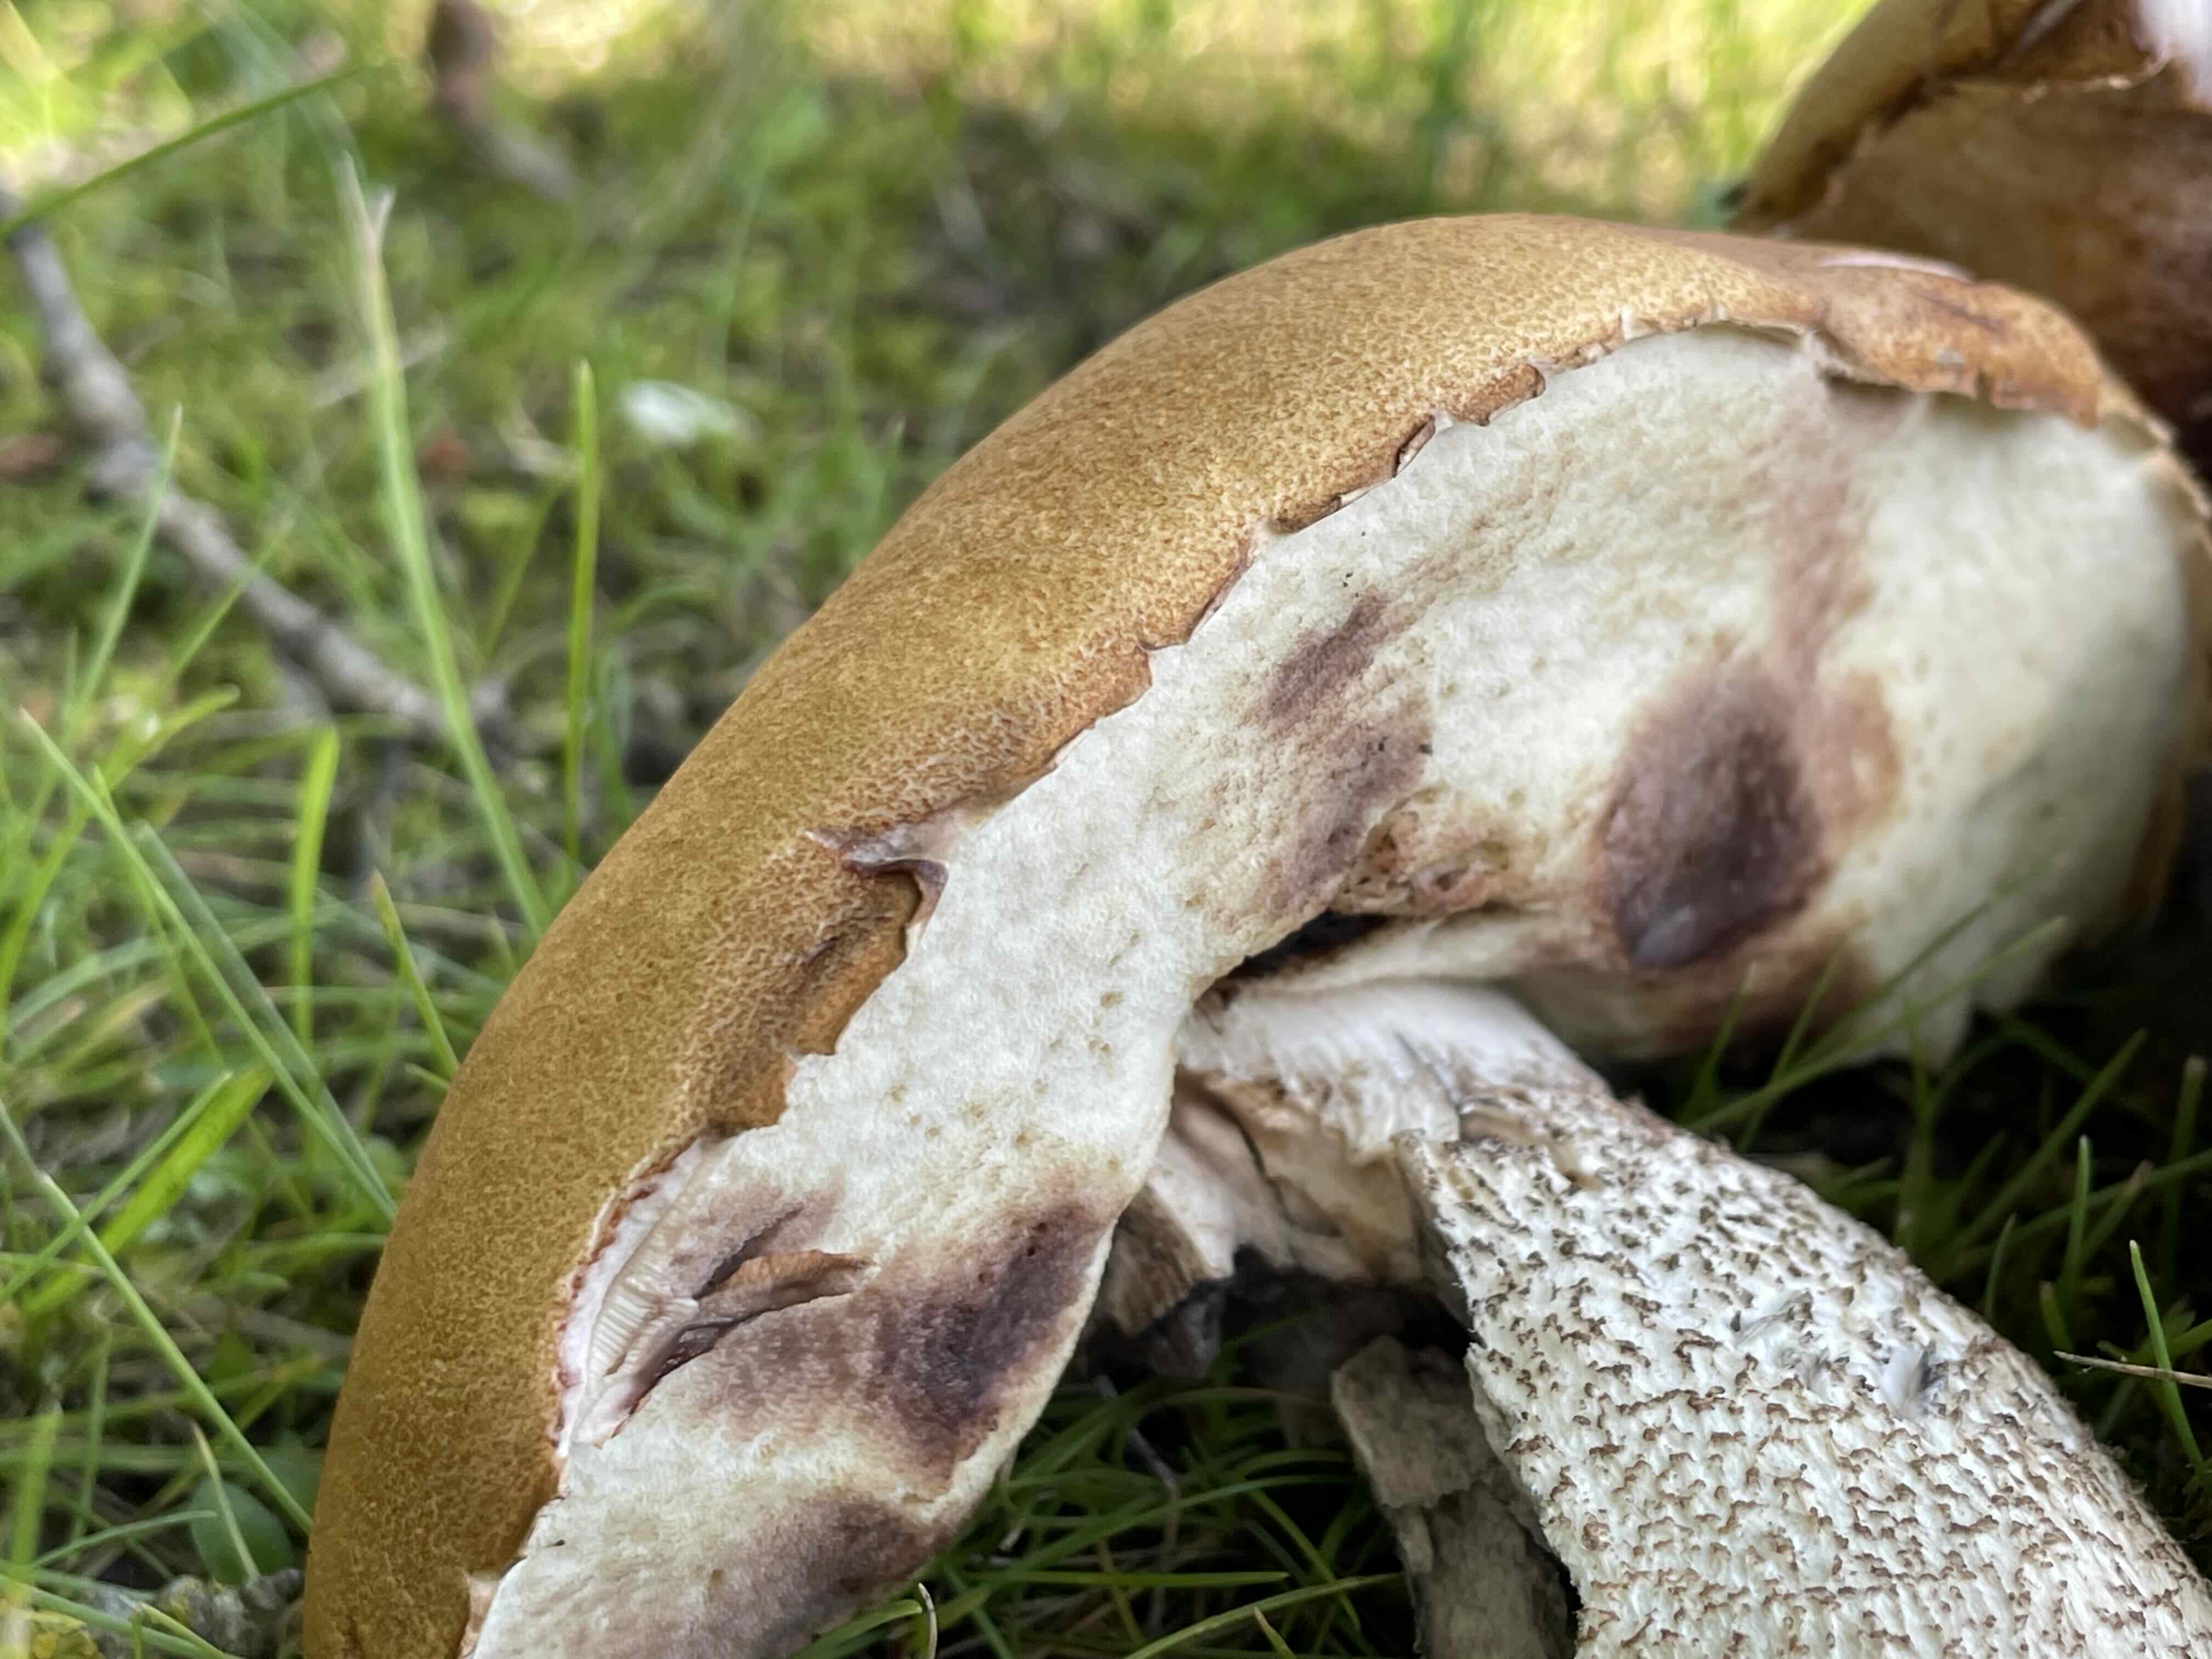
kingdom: Fungi
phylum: Basidiomycota
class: Agaricomycetes
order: Boletales
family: Boletaceae
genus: Leccinum
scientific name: Leccinum aurantiacum
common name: rustrød skælrørhat
